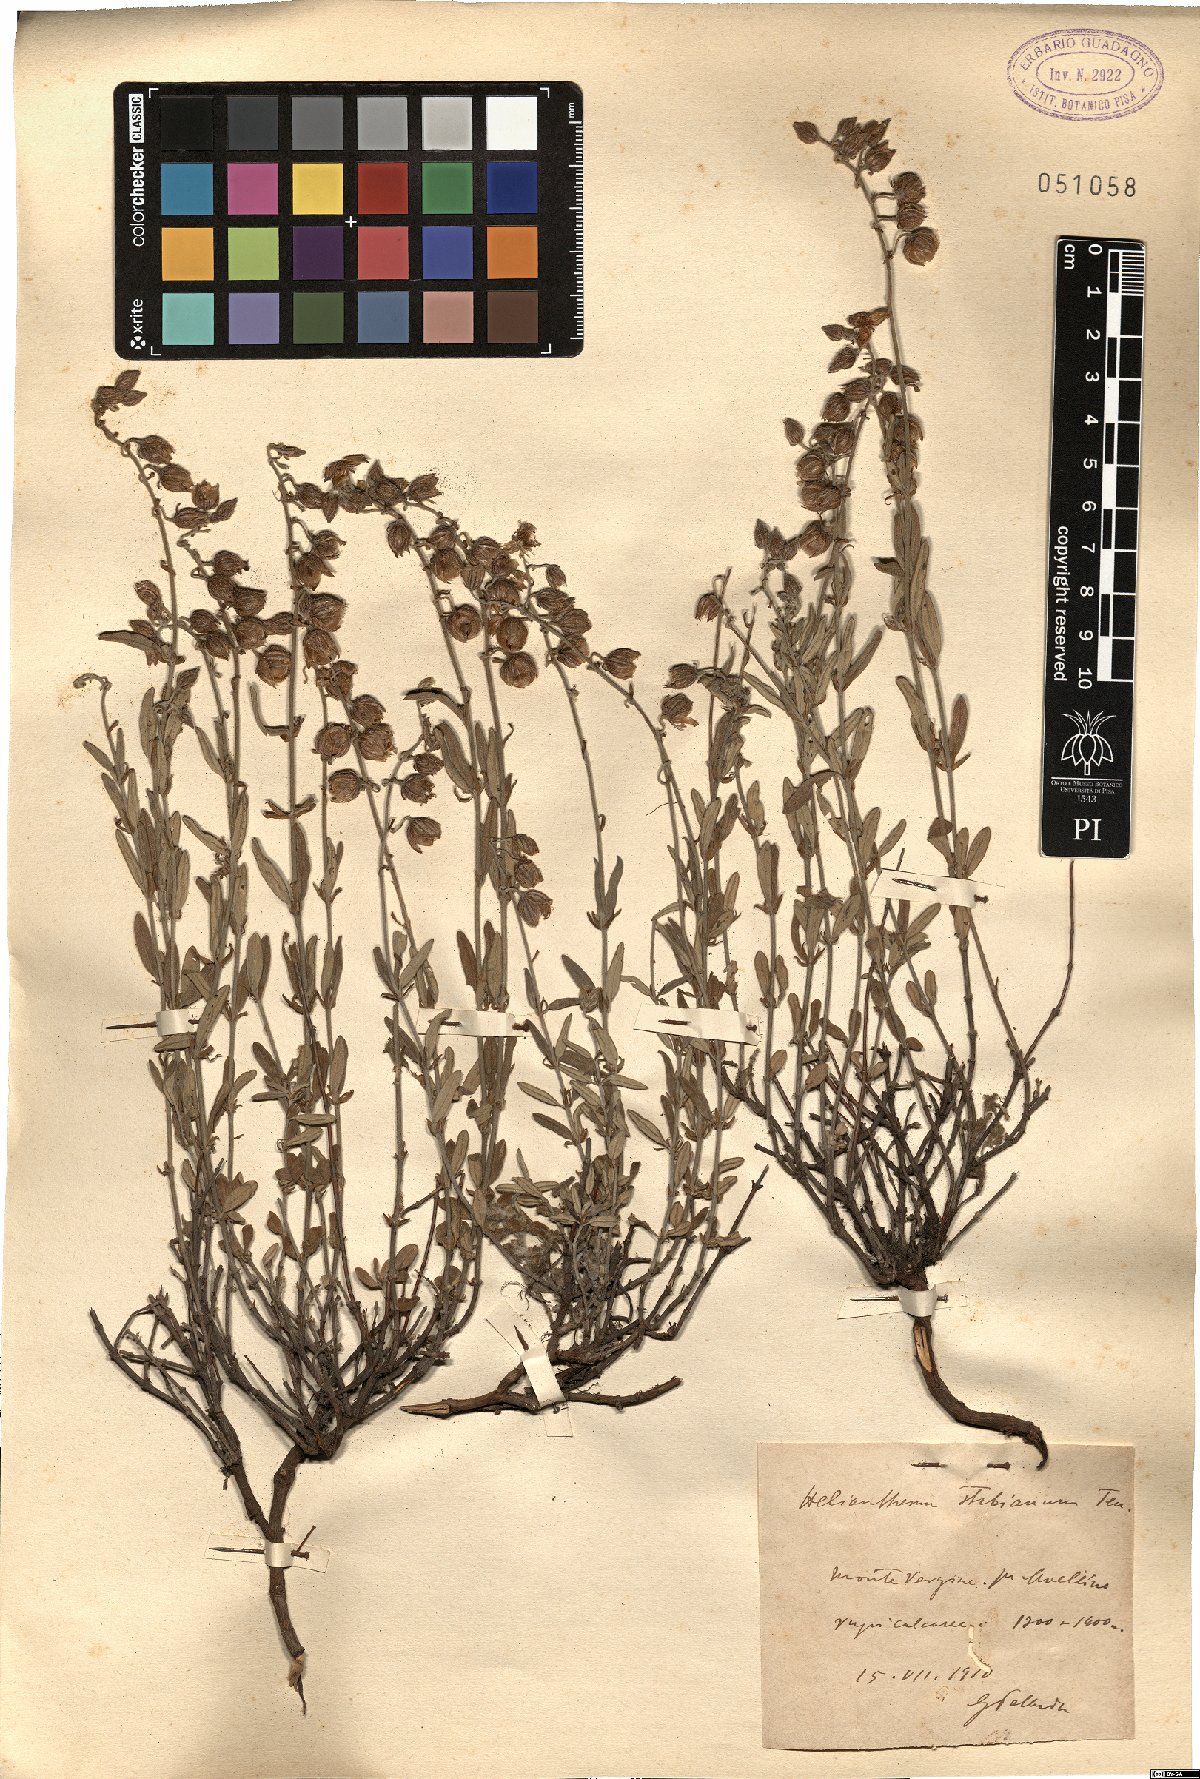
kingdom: Plantae
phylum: Tracheophyta
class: Magnoliopsida
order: Malvales
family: Cistaceae
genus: Helianthemum
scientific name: Helianthemum croceum
